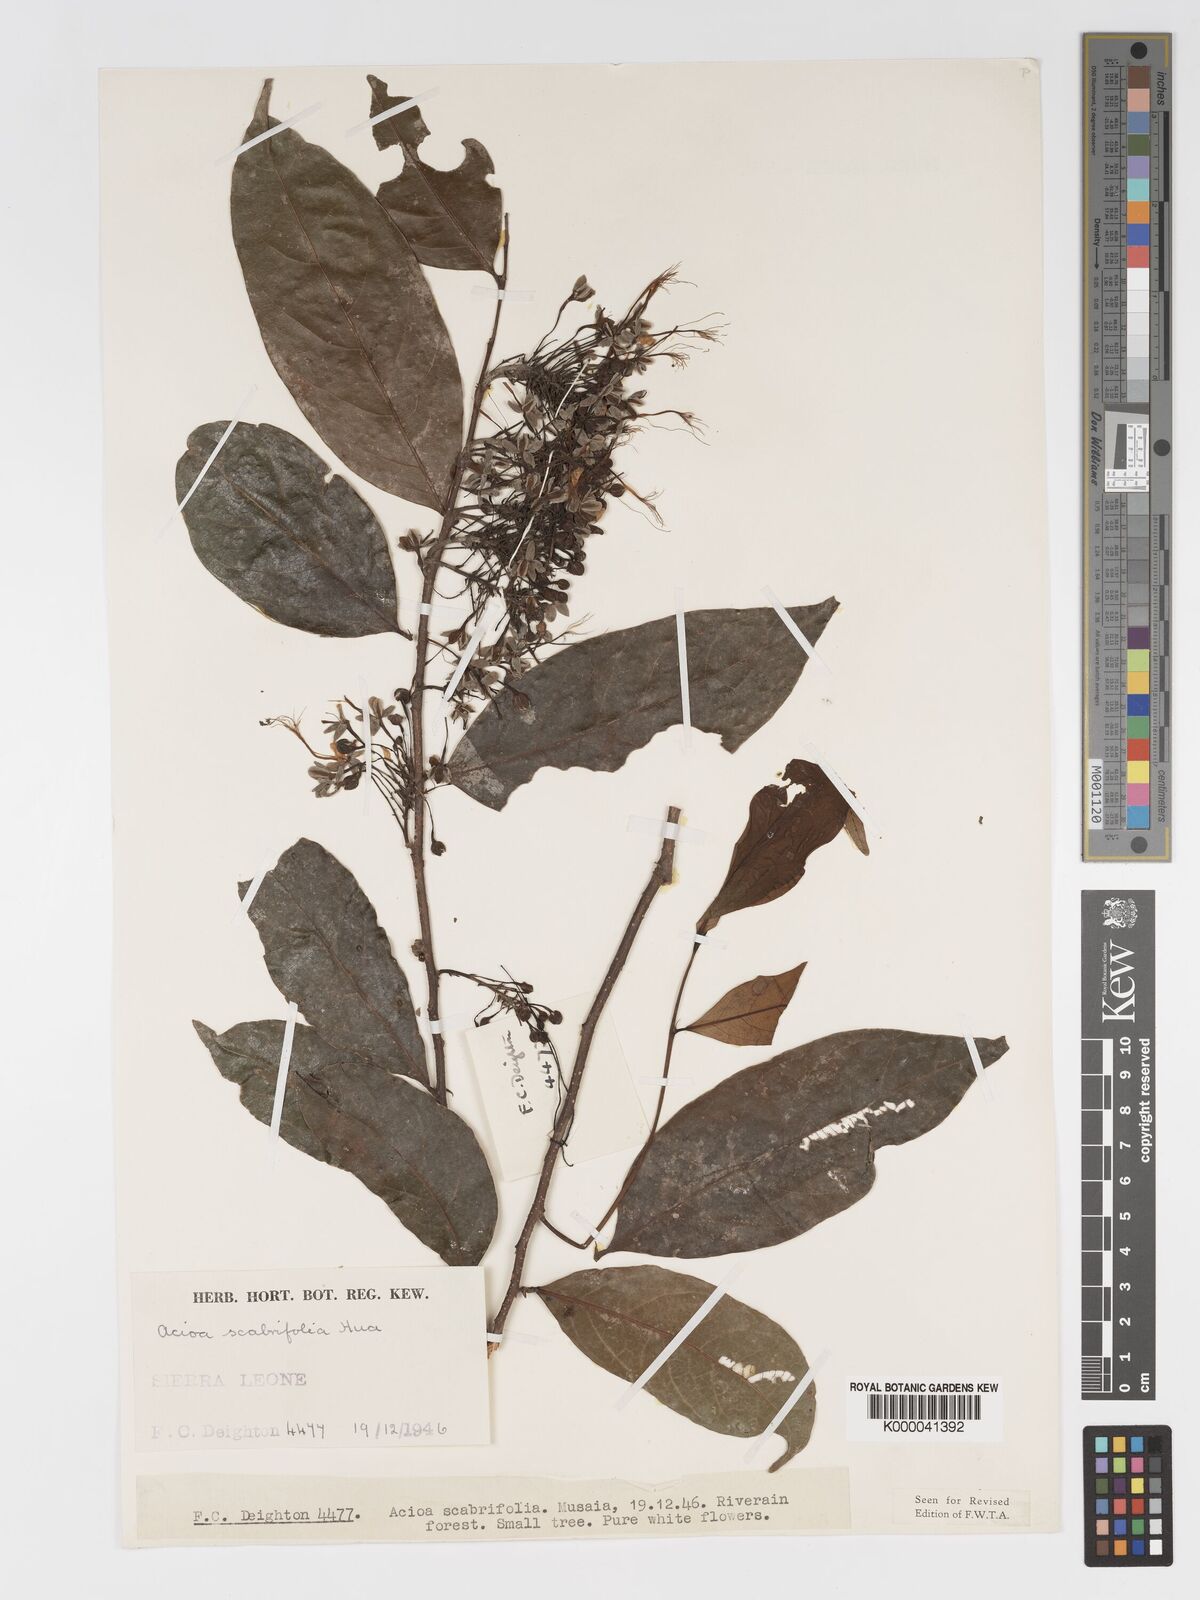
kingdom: Plantae
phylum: Tracheophyta
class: Magnoliopsida
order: Malpighiales
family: Chrysobalanaceae
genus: Dactyladenia
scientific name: Dactyladenia scabrifolia
